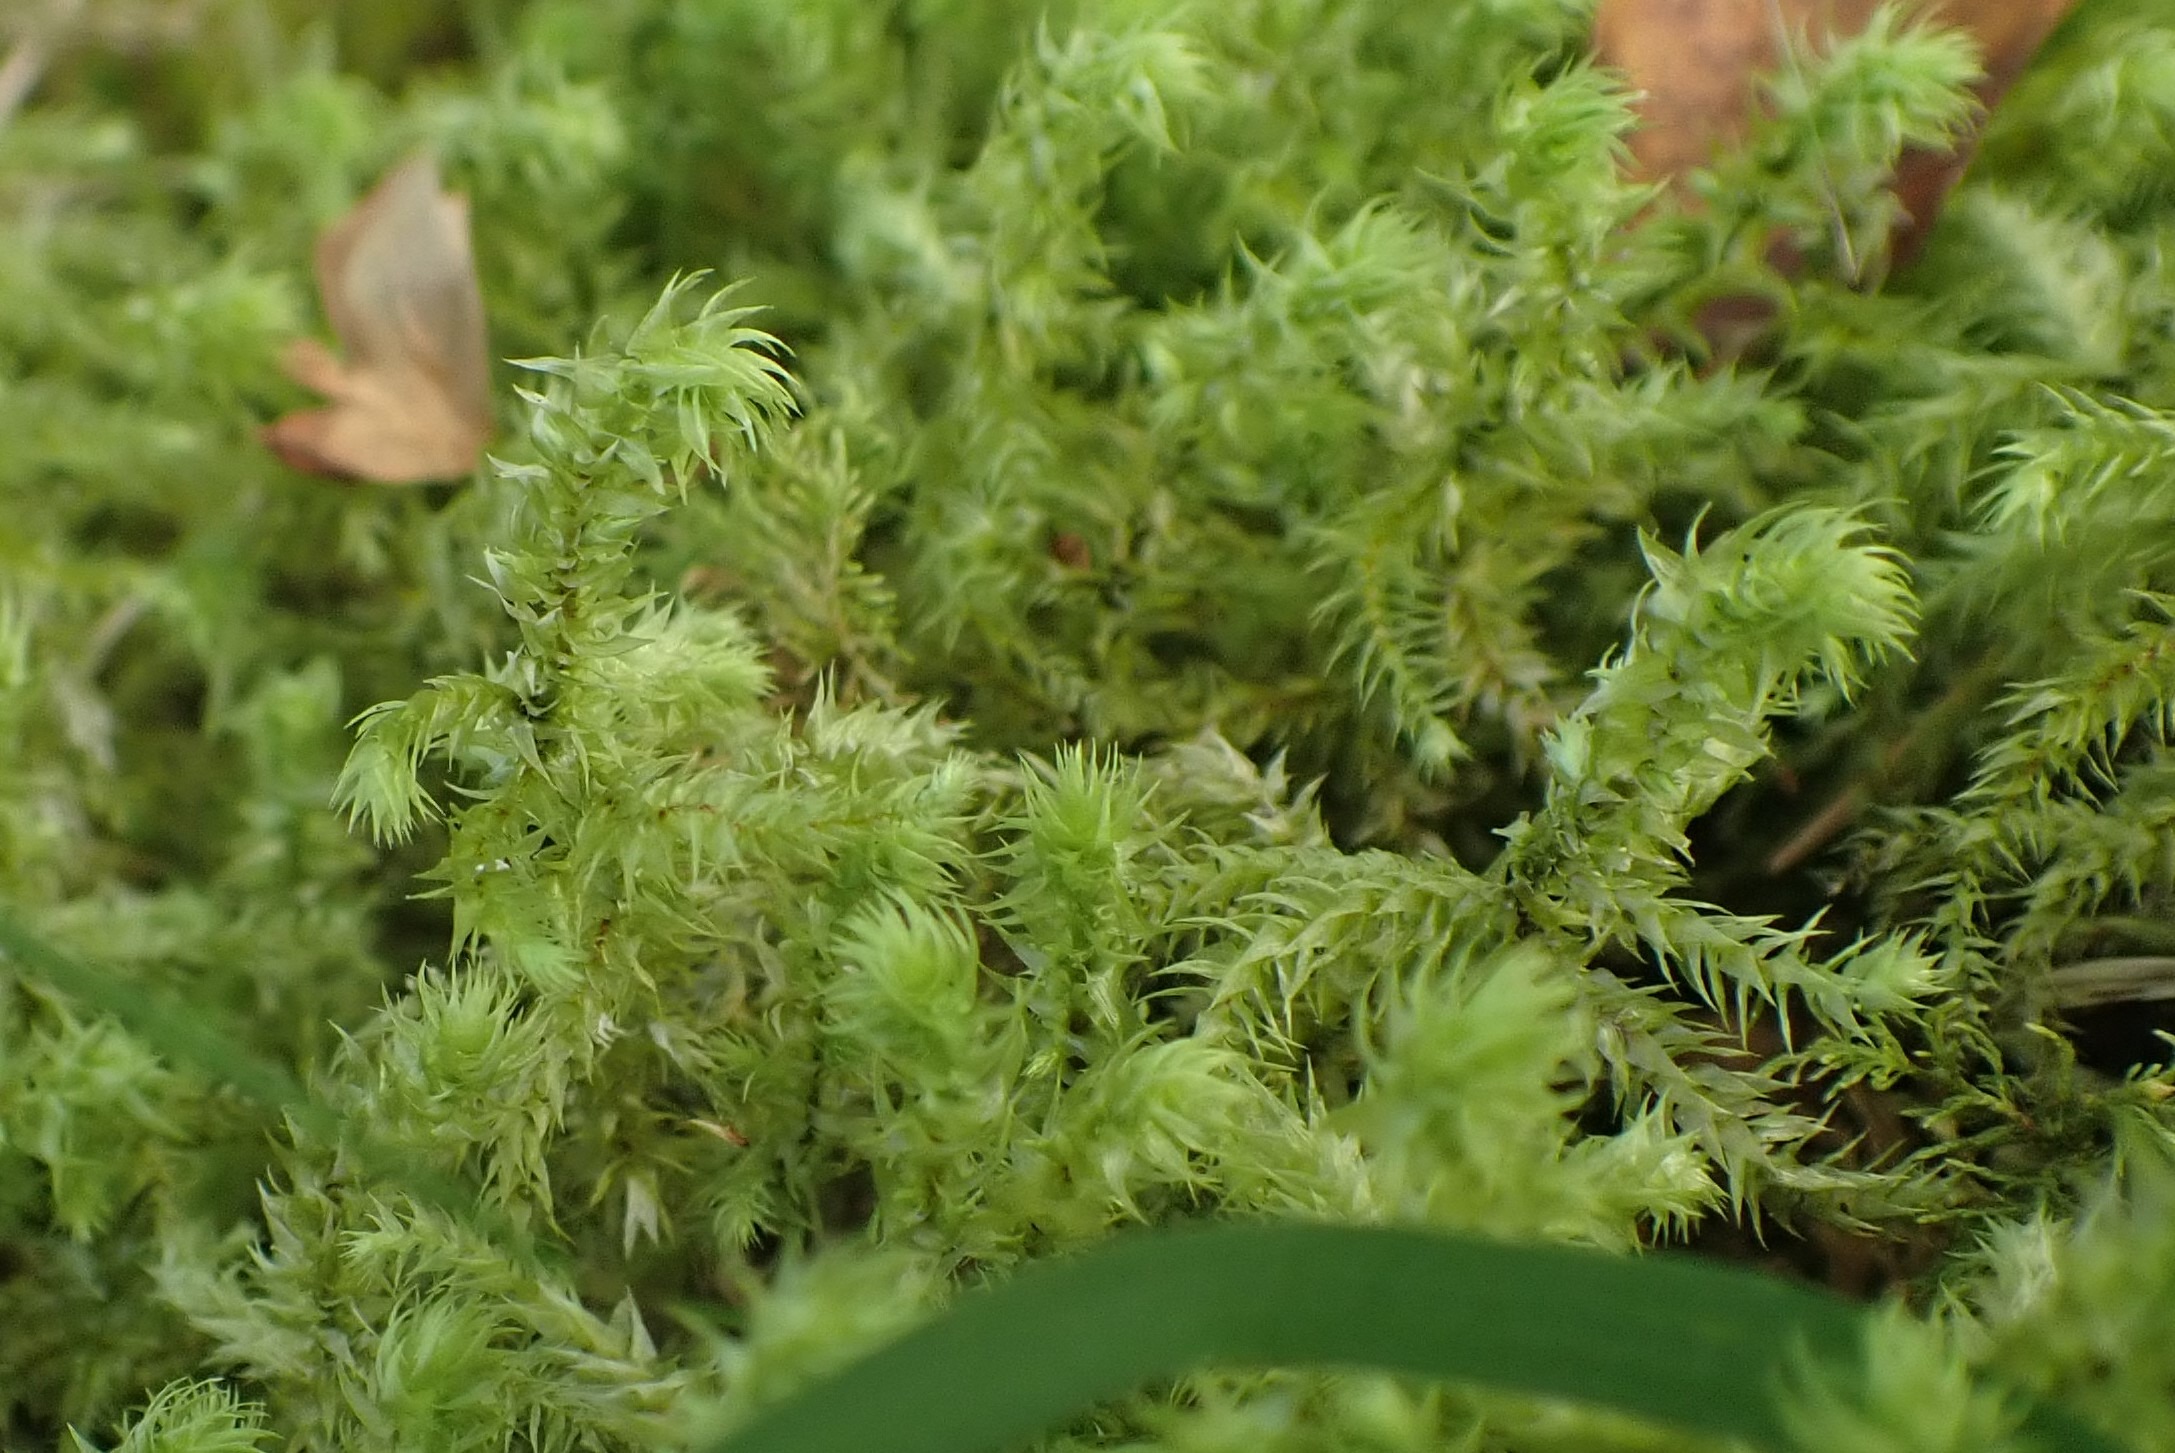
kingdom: Plantae
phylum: Bryophyta
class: Bryopsida
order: Hypnales
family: Hylocomiaceae
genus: Hylocomiadelphus
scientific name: Hylocomiadelphus triquetrus
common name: Stor kransemos
